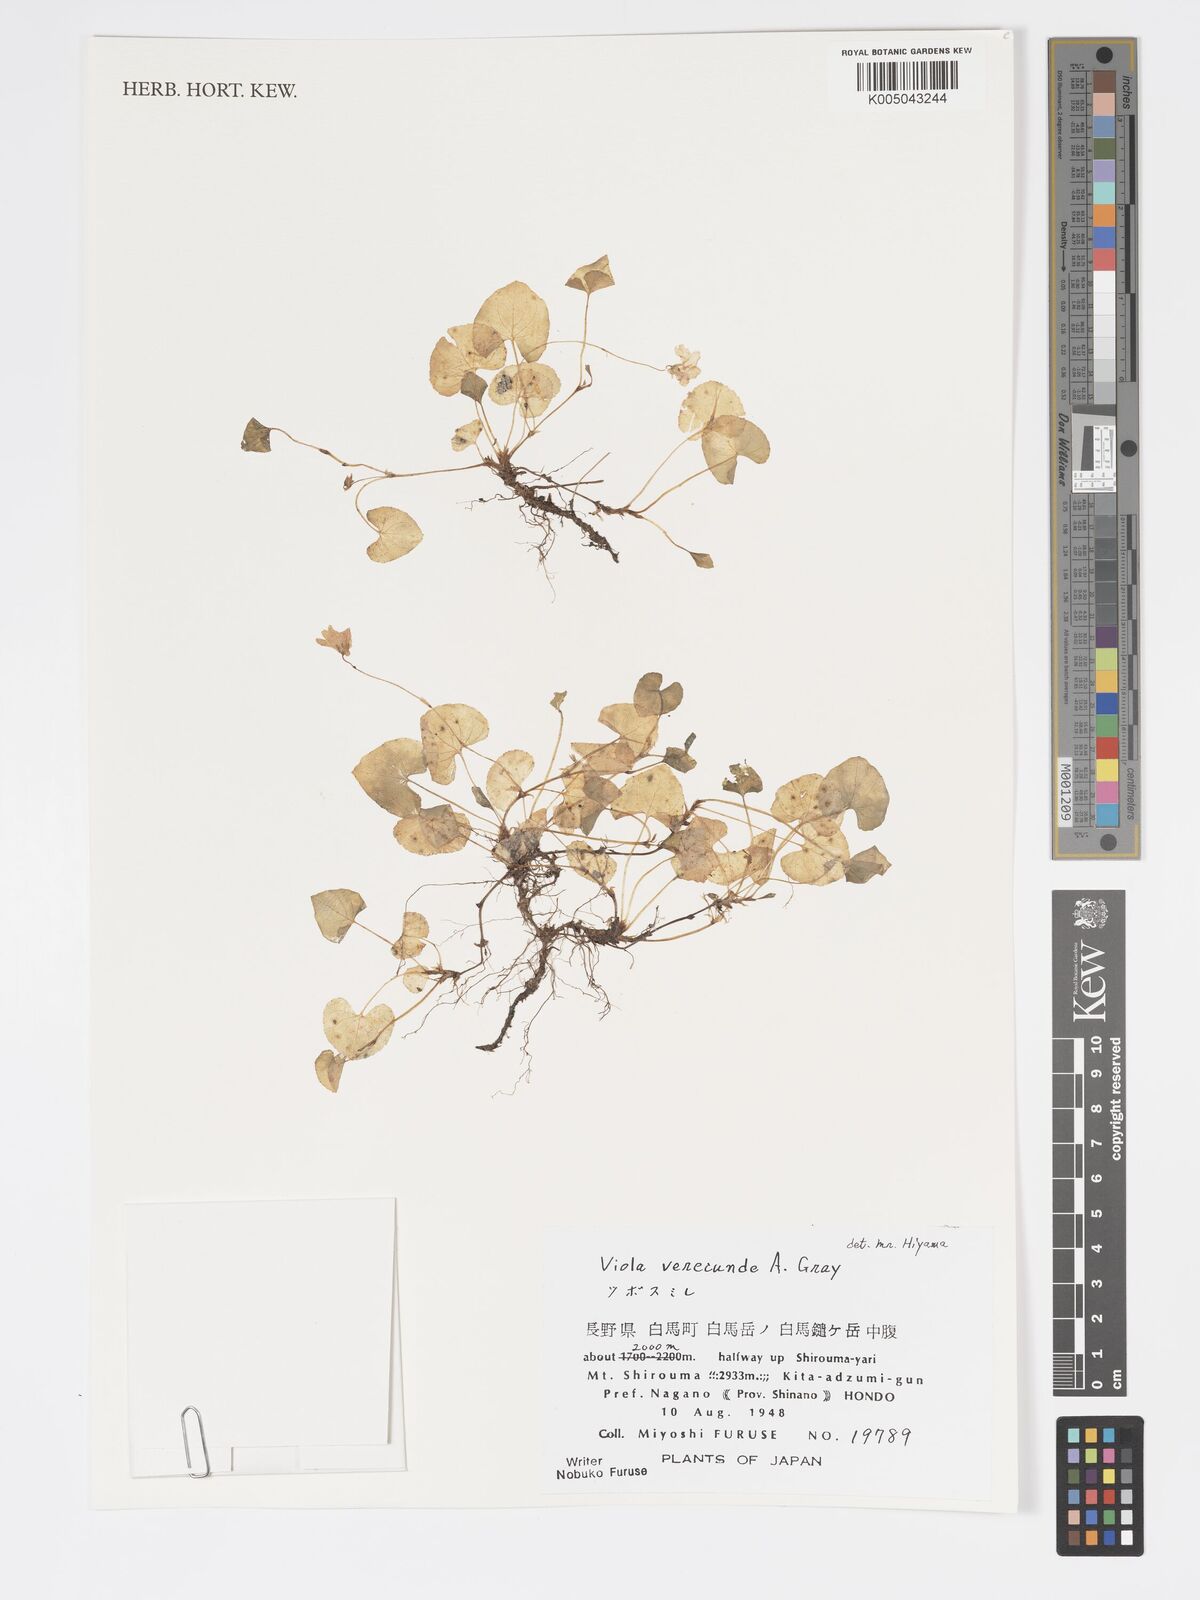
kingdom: Plantae
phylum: Tracheophyta
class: Magnoliopsida
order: Malpighiales
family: Violaceae
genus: Viola
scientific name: Viola hamiltoniana
